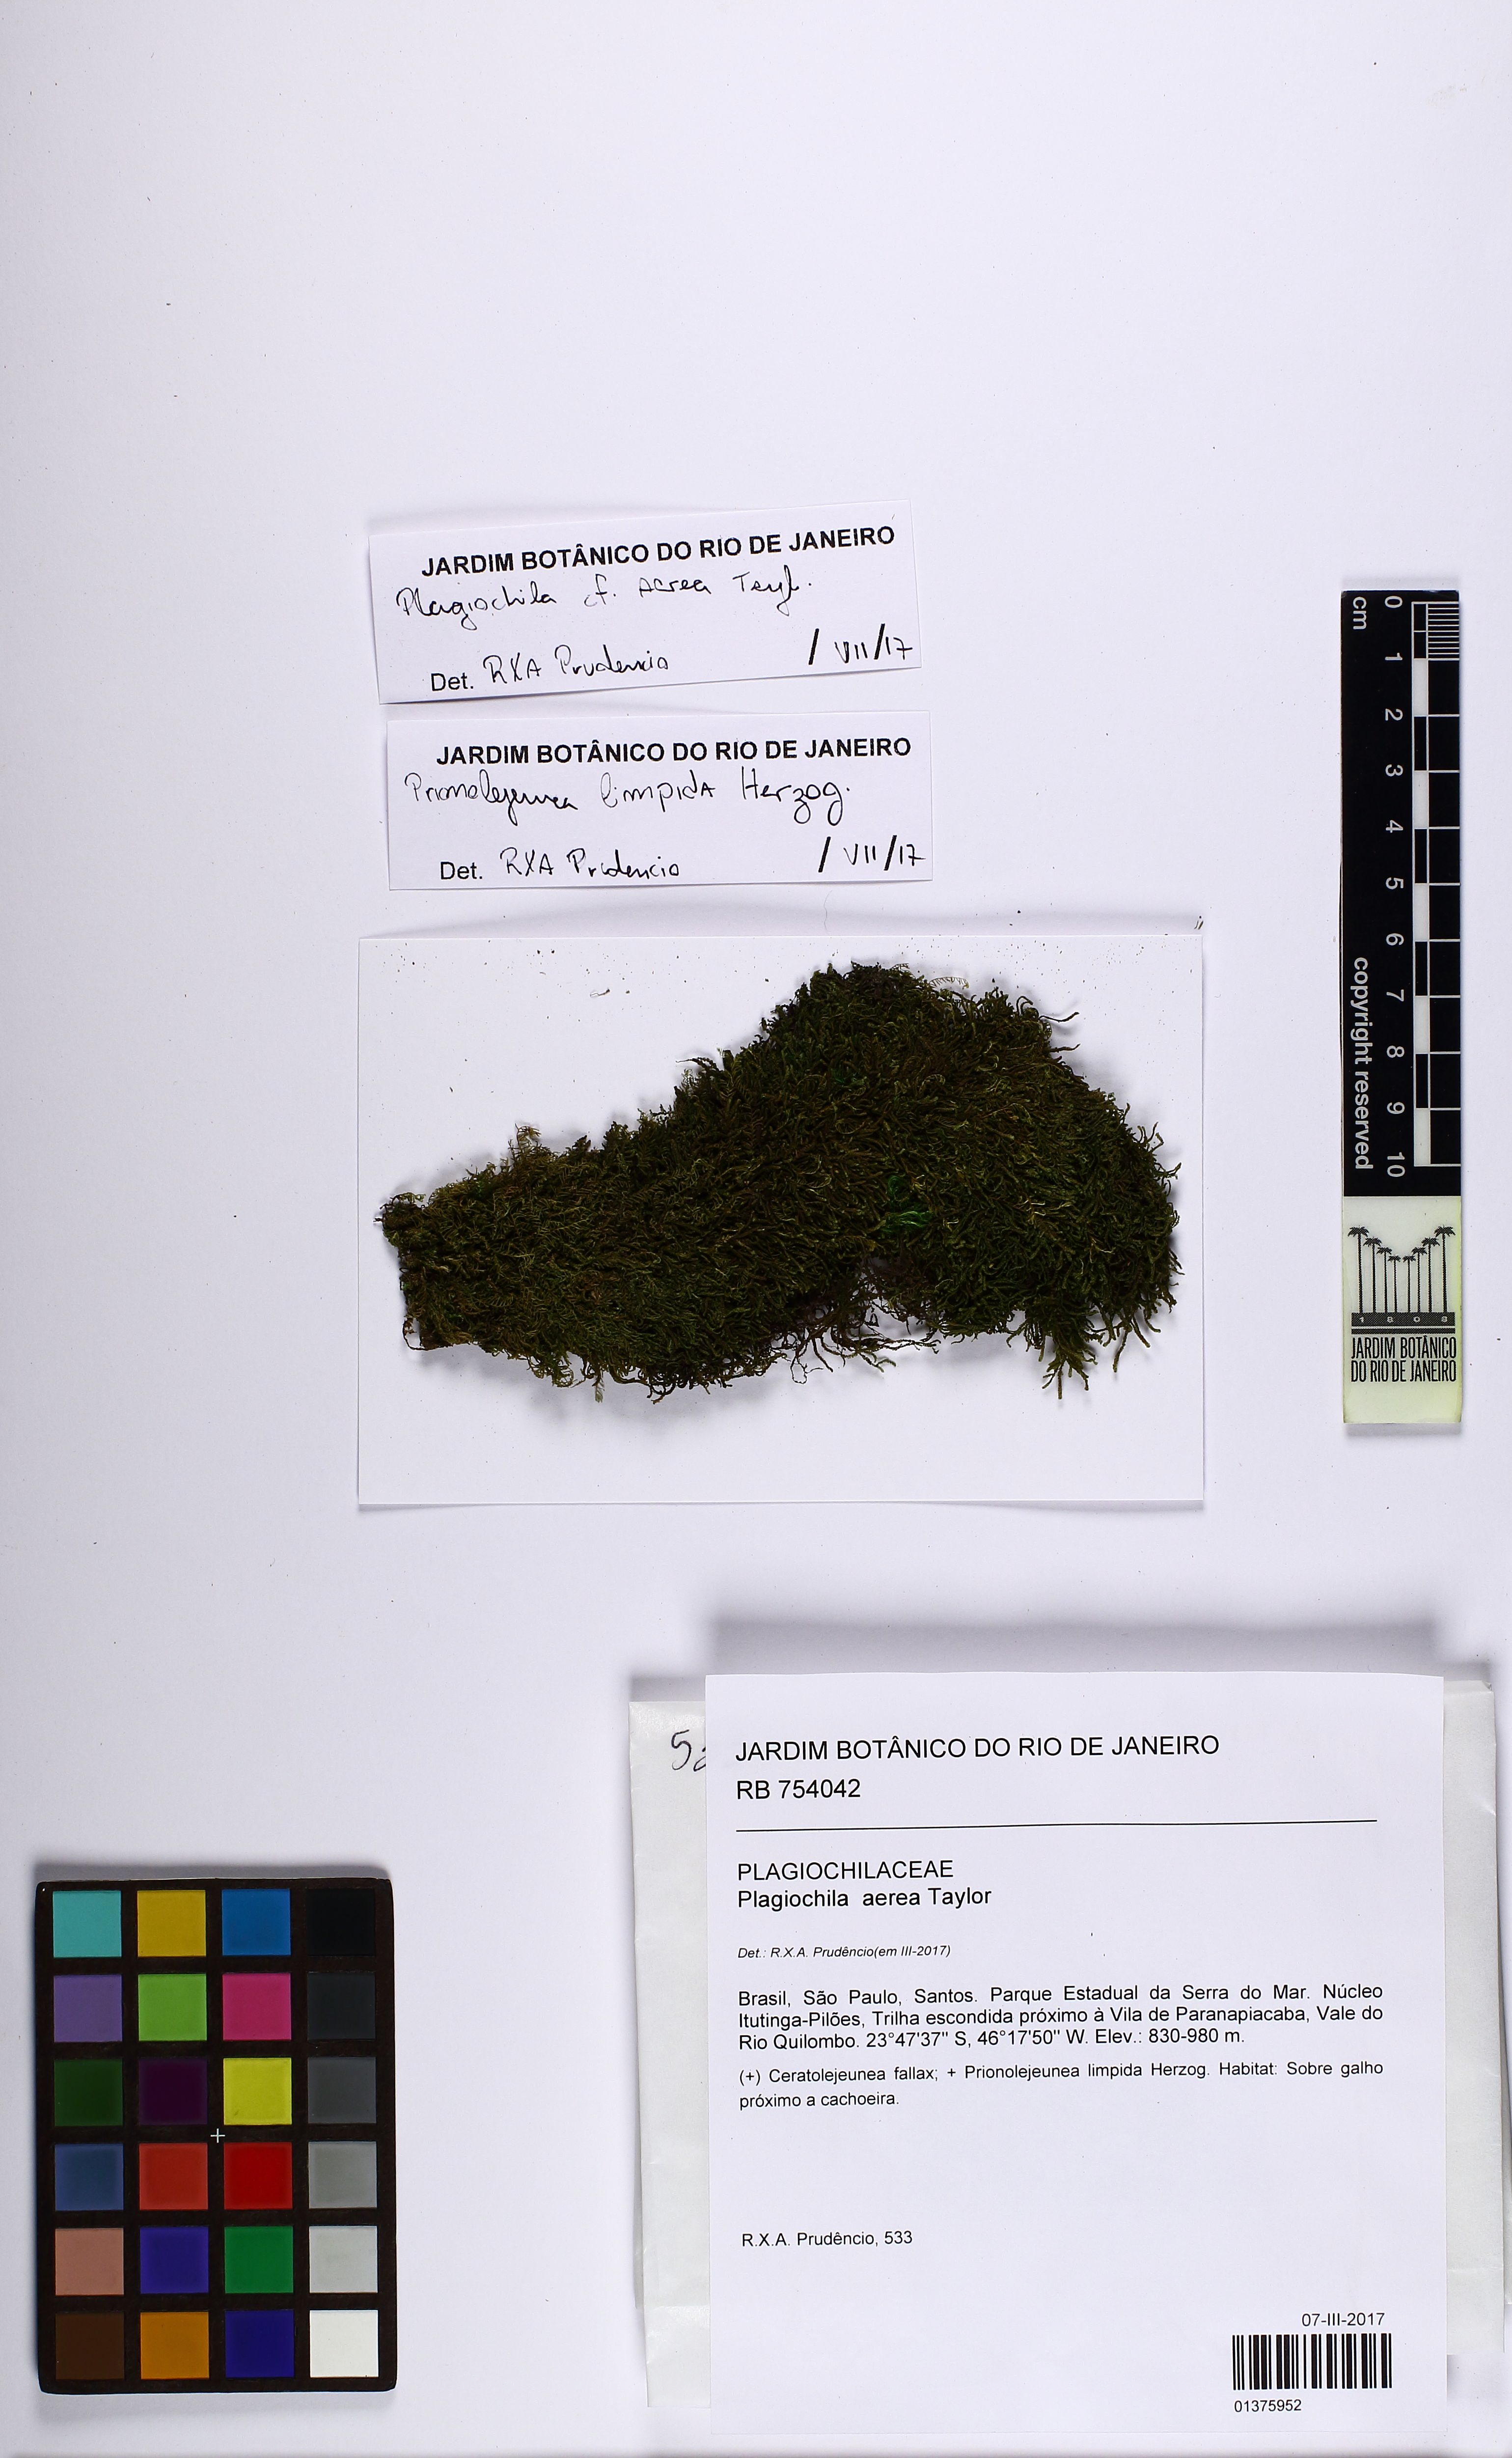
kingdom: Plantae
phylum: Marchantiophyta
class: Jungermanniopsida
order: Jungermanniales
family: Plagiochilaceae
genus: Plagiochila
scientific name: Plagiochila aerea
